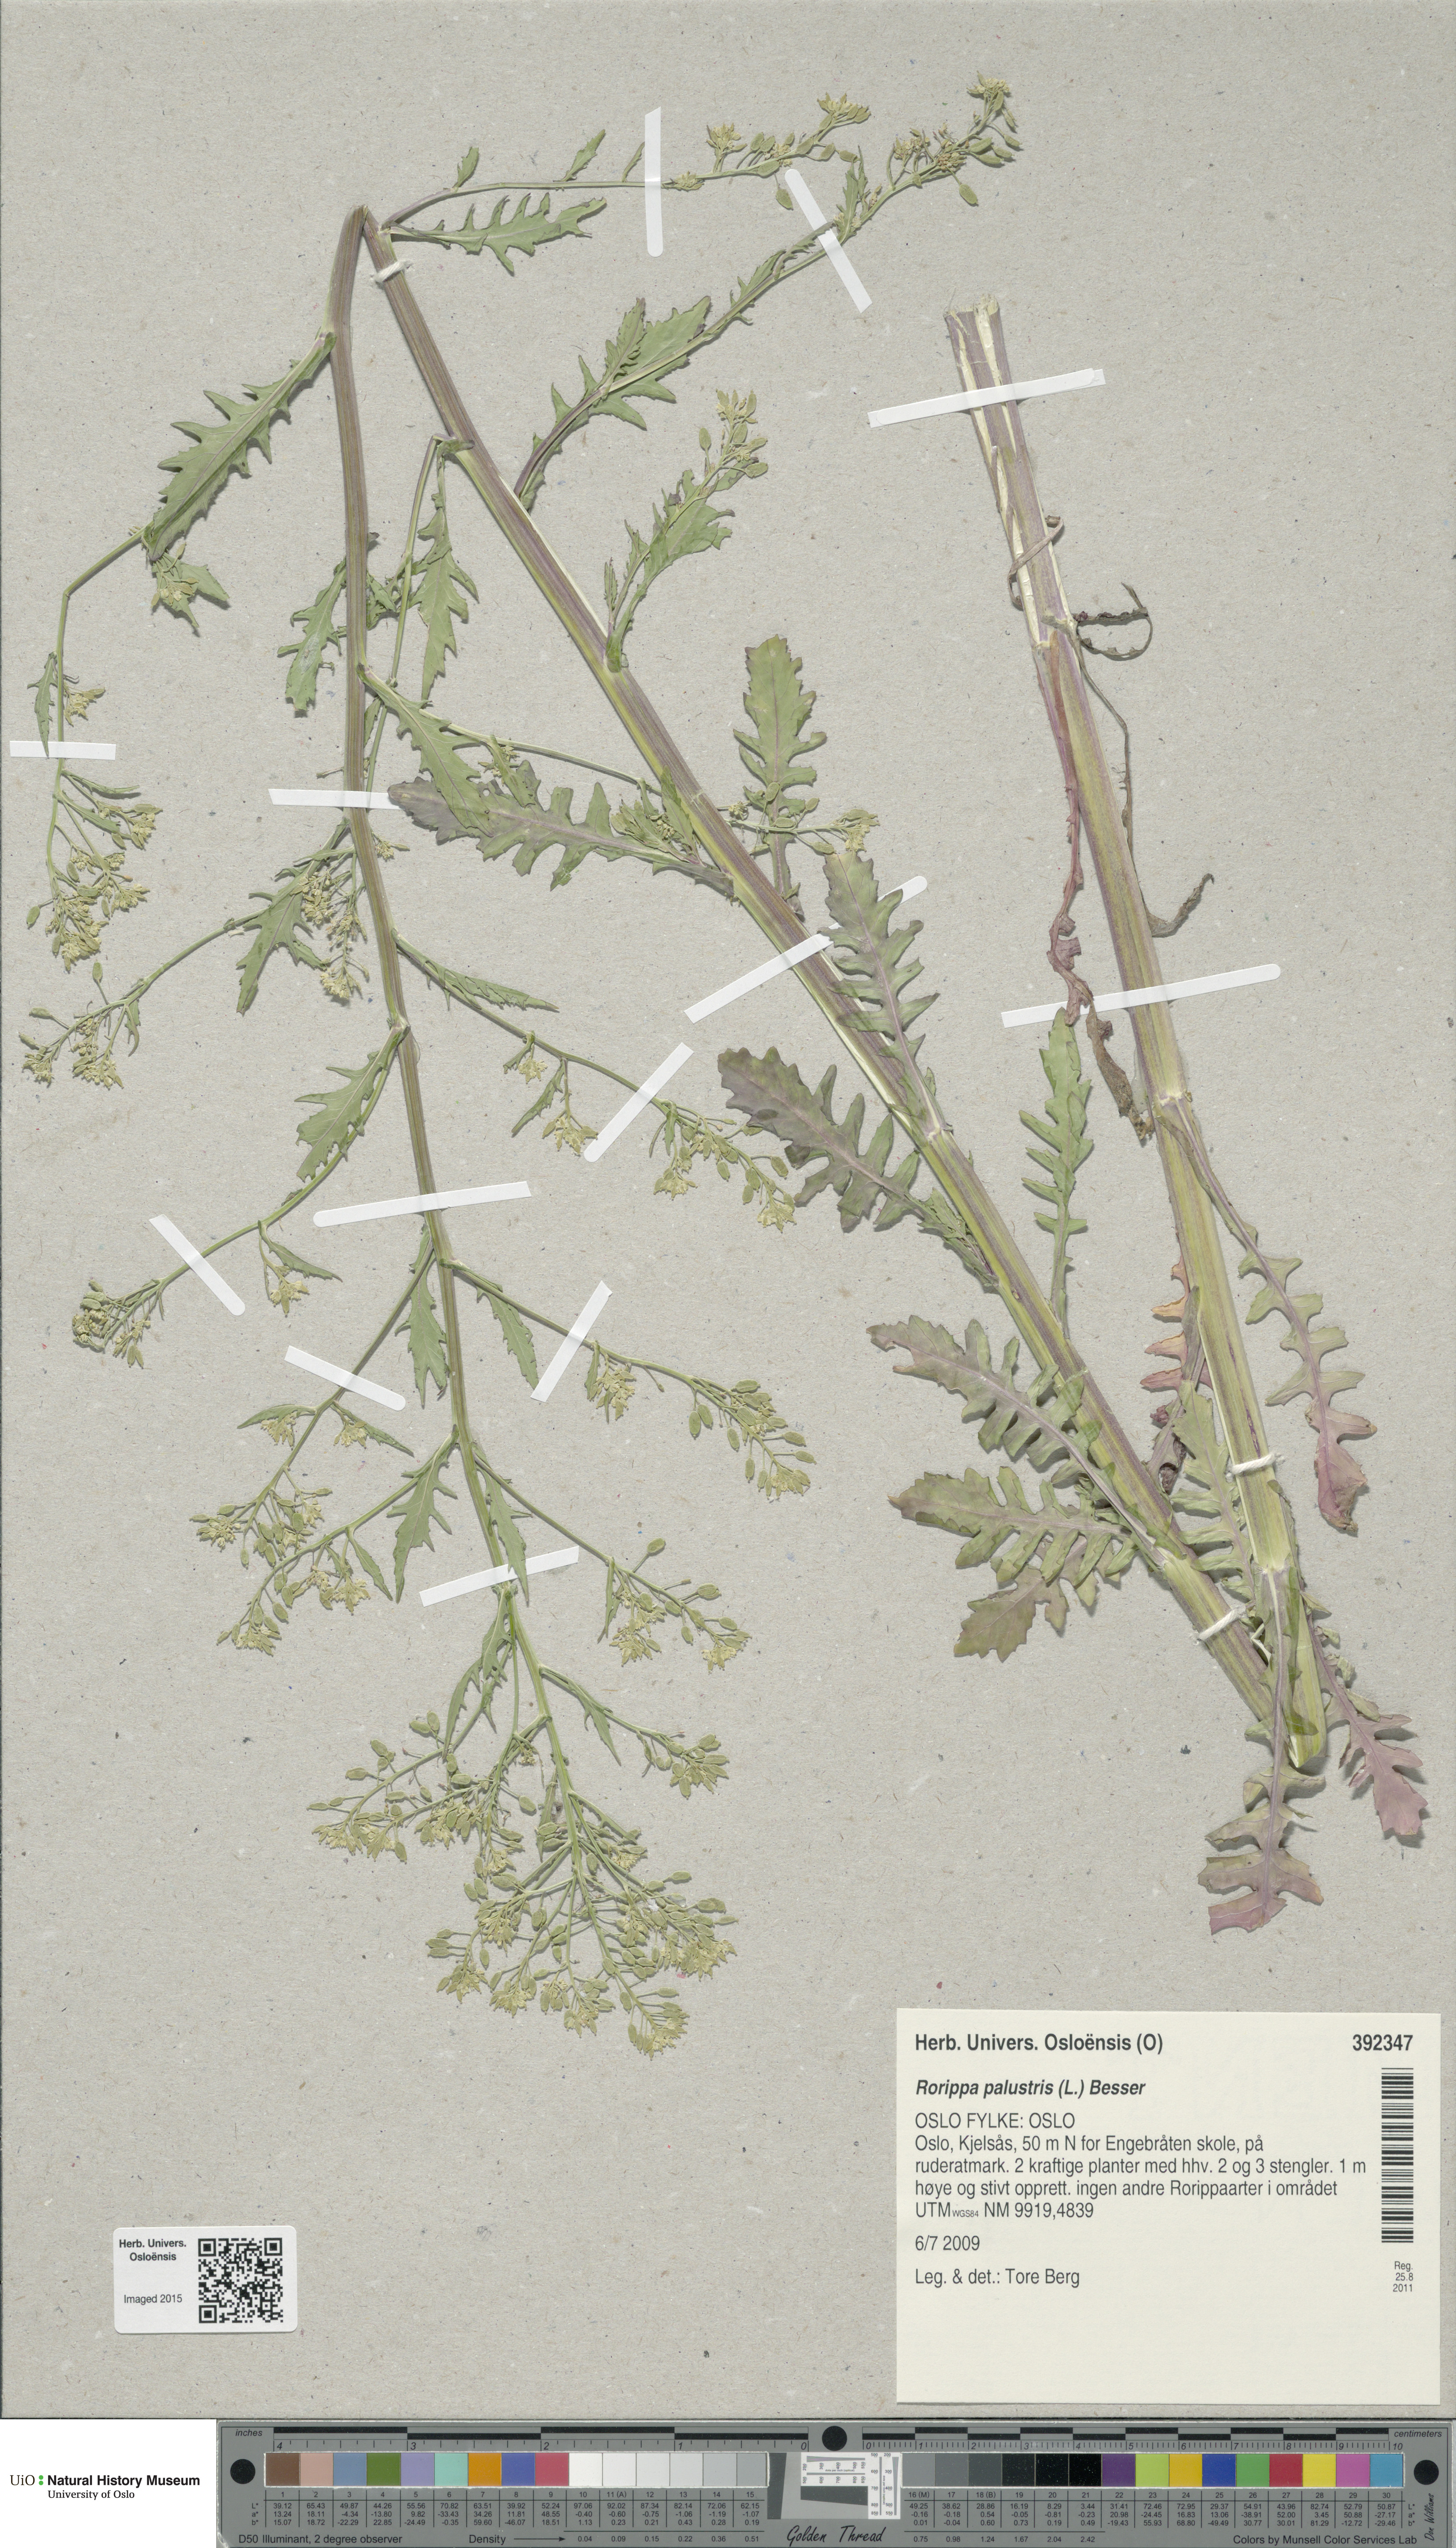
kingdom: Plantae
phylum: Tracheophyta
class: Magnoliopsida
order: Brassicales
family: Brassicaceae
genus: Rorippa
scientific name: Rorippa palustris
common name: Marsh yellow-cress
